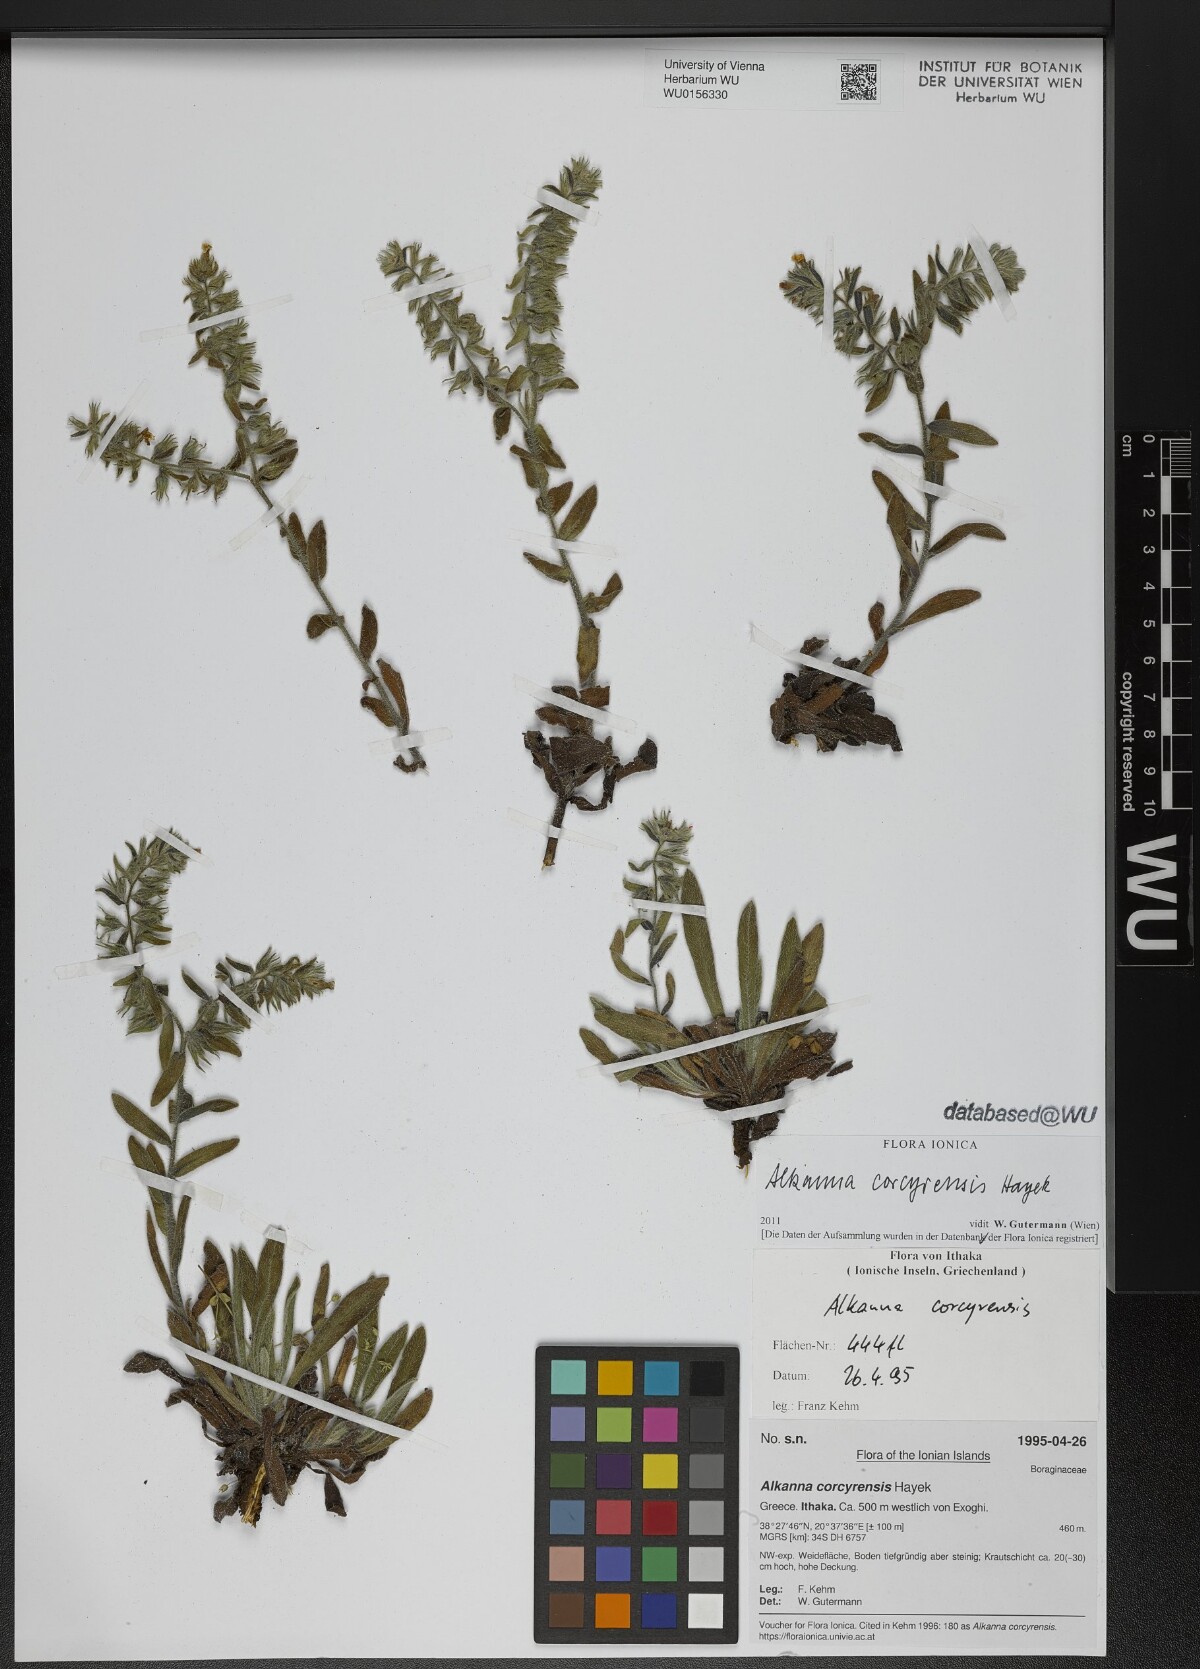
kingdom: Plantae
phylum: Tracheophyta
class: Magnoliopsida
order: Boraginales
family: Boraginaceae
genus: Alkanna
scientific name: Alkanna corcyrensis
